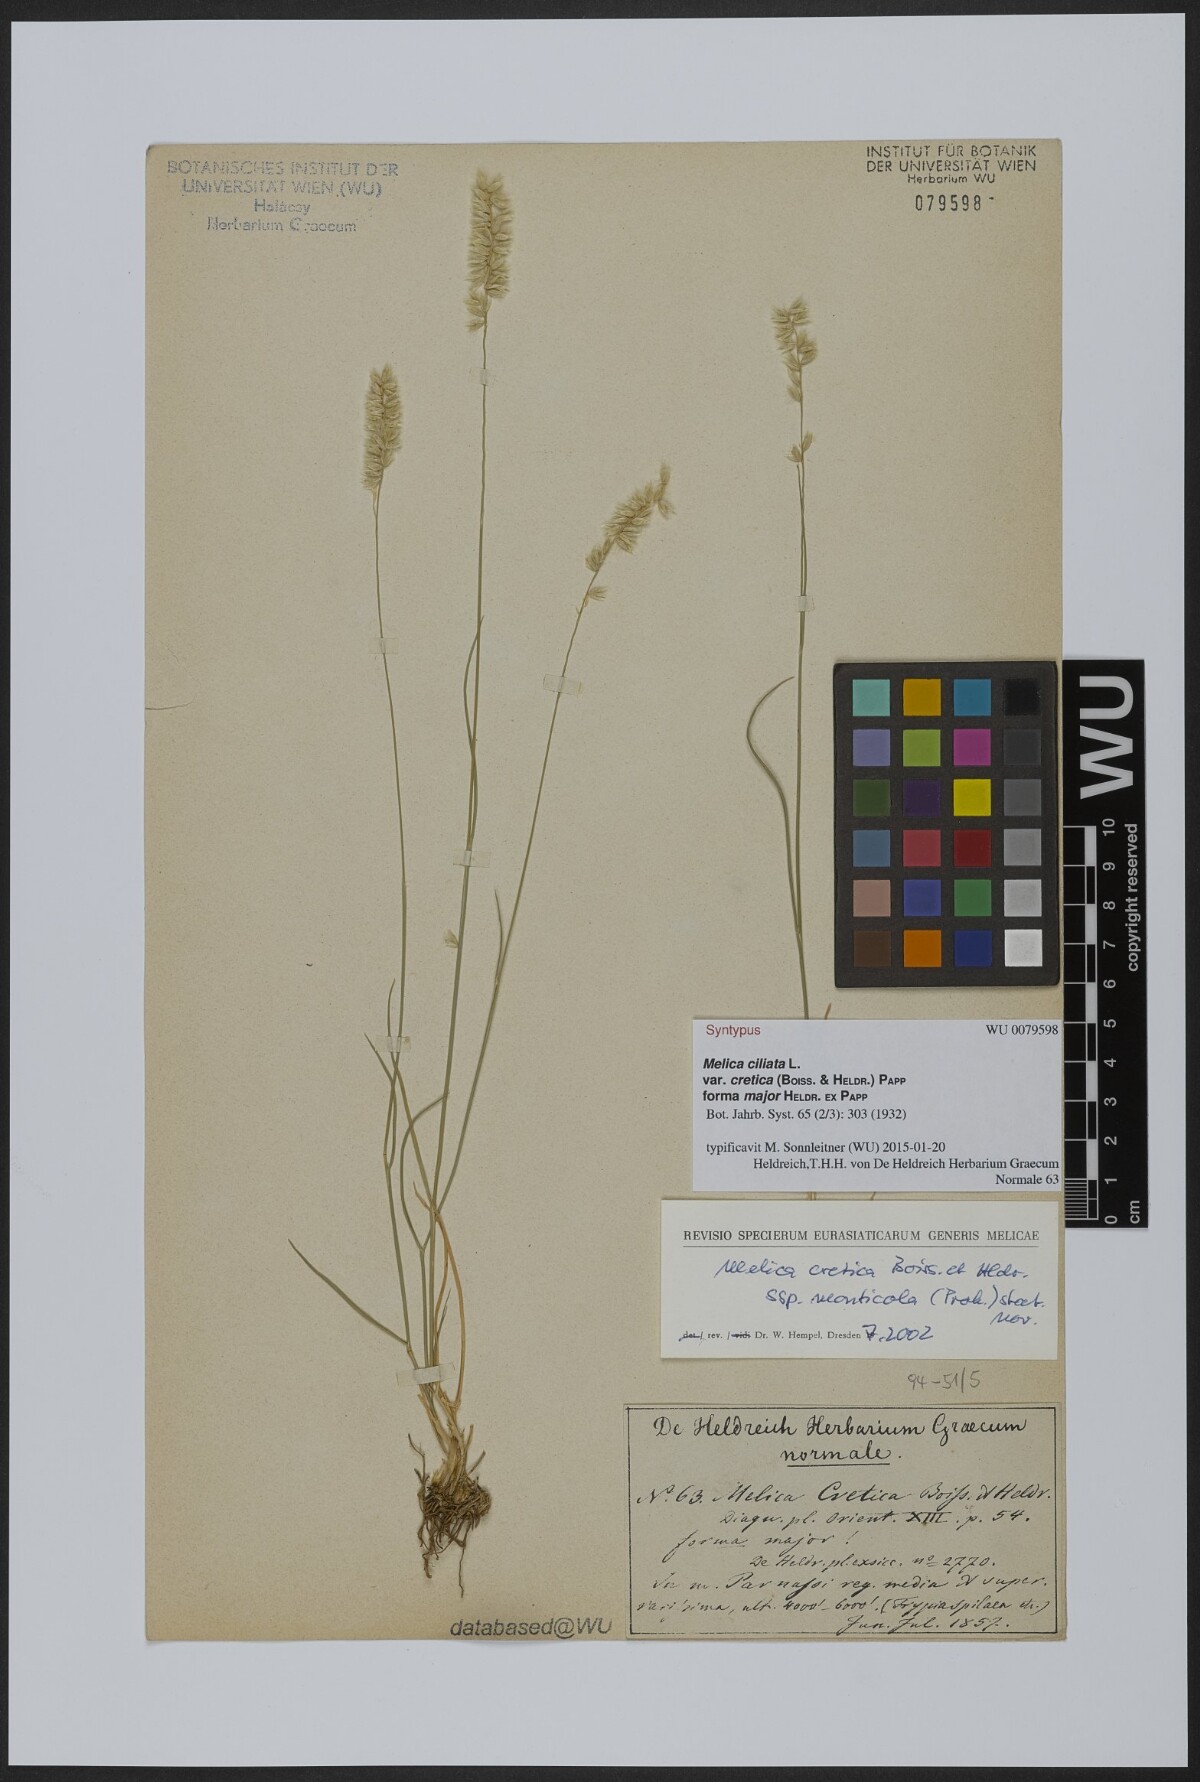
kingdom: Plantae
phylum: Tracheophyta
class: Liliopsida
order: Poales
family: Poaceae
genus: Melica
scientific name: Melica ciliata
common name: Hairy melicgrass
